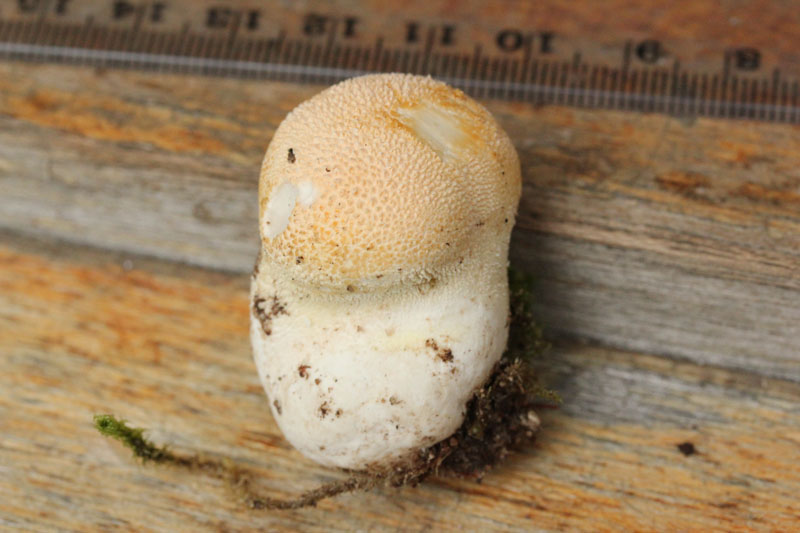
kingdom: Fungi
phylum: Basidiomycota
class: Agaricomycetes
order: Agaricales
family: Lycoperdaceae
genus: Lycoperdon
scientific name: Lycoperdon pratense
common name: flad støvbold
